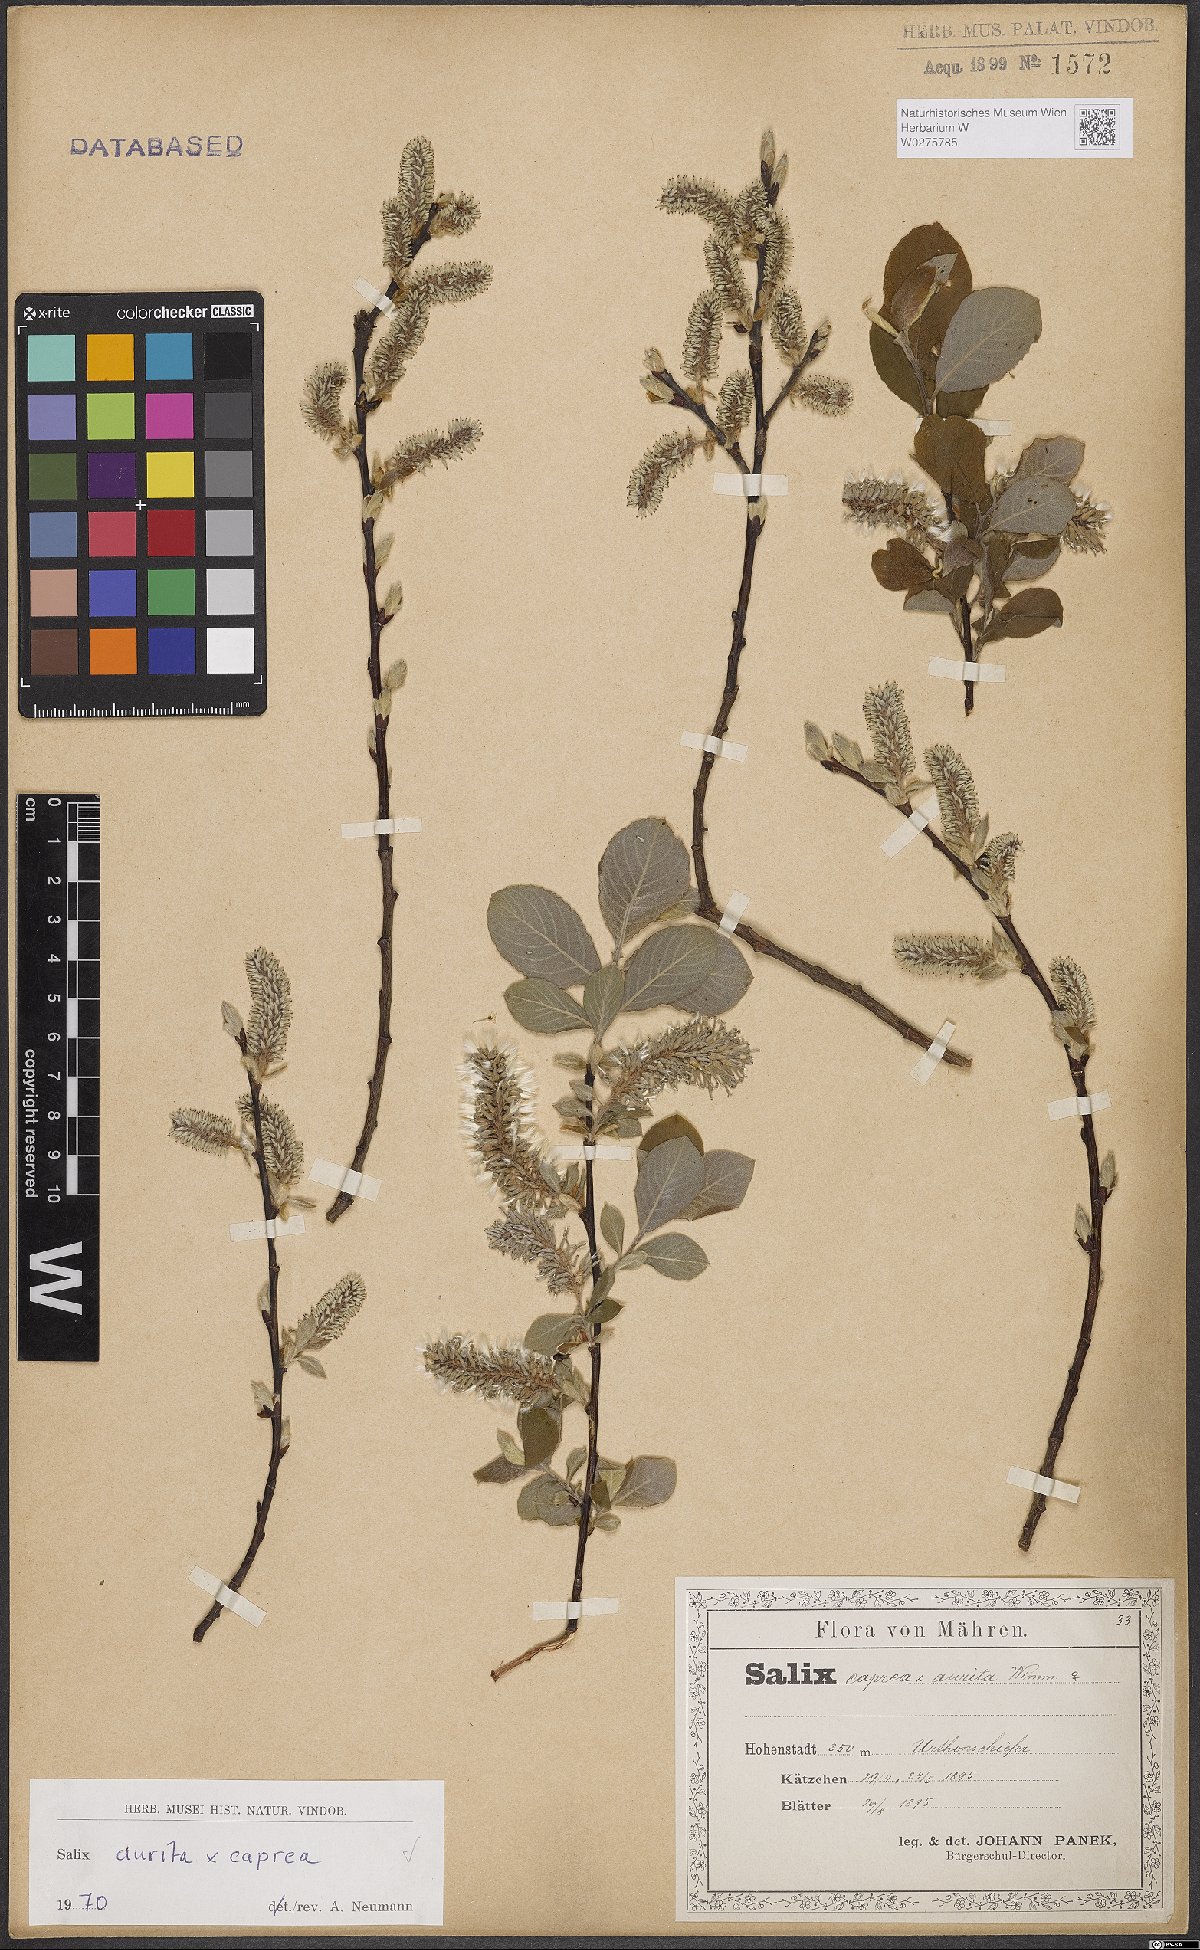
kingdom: Plantae
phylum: Tracheophyta
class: Magnoliopsida
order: Malpighiales
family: Salicaceae
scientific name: Salicaceae
